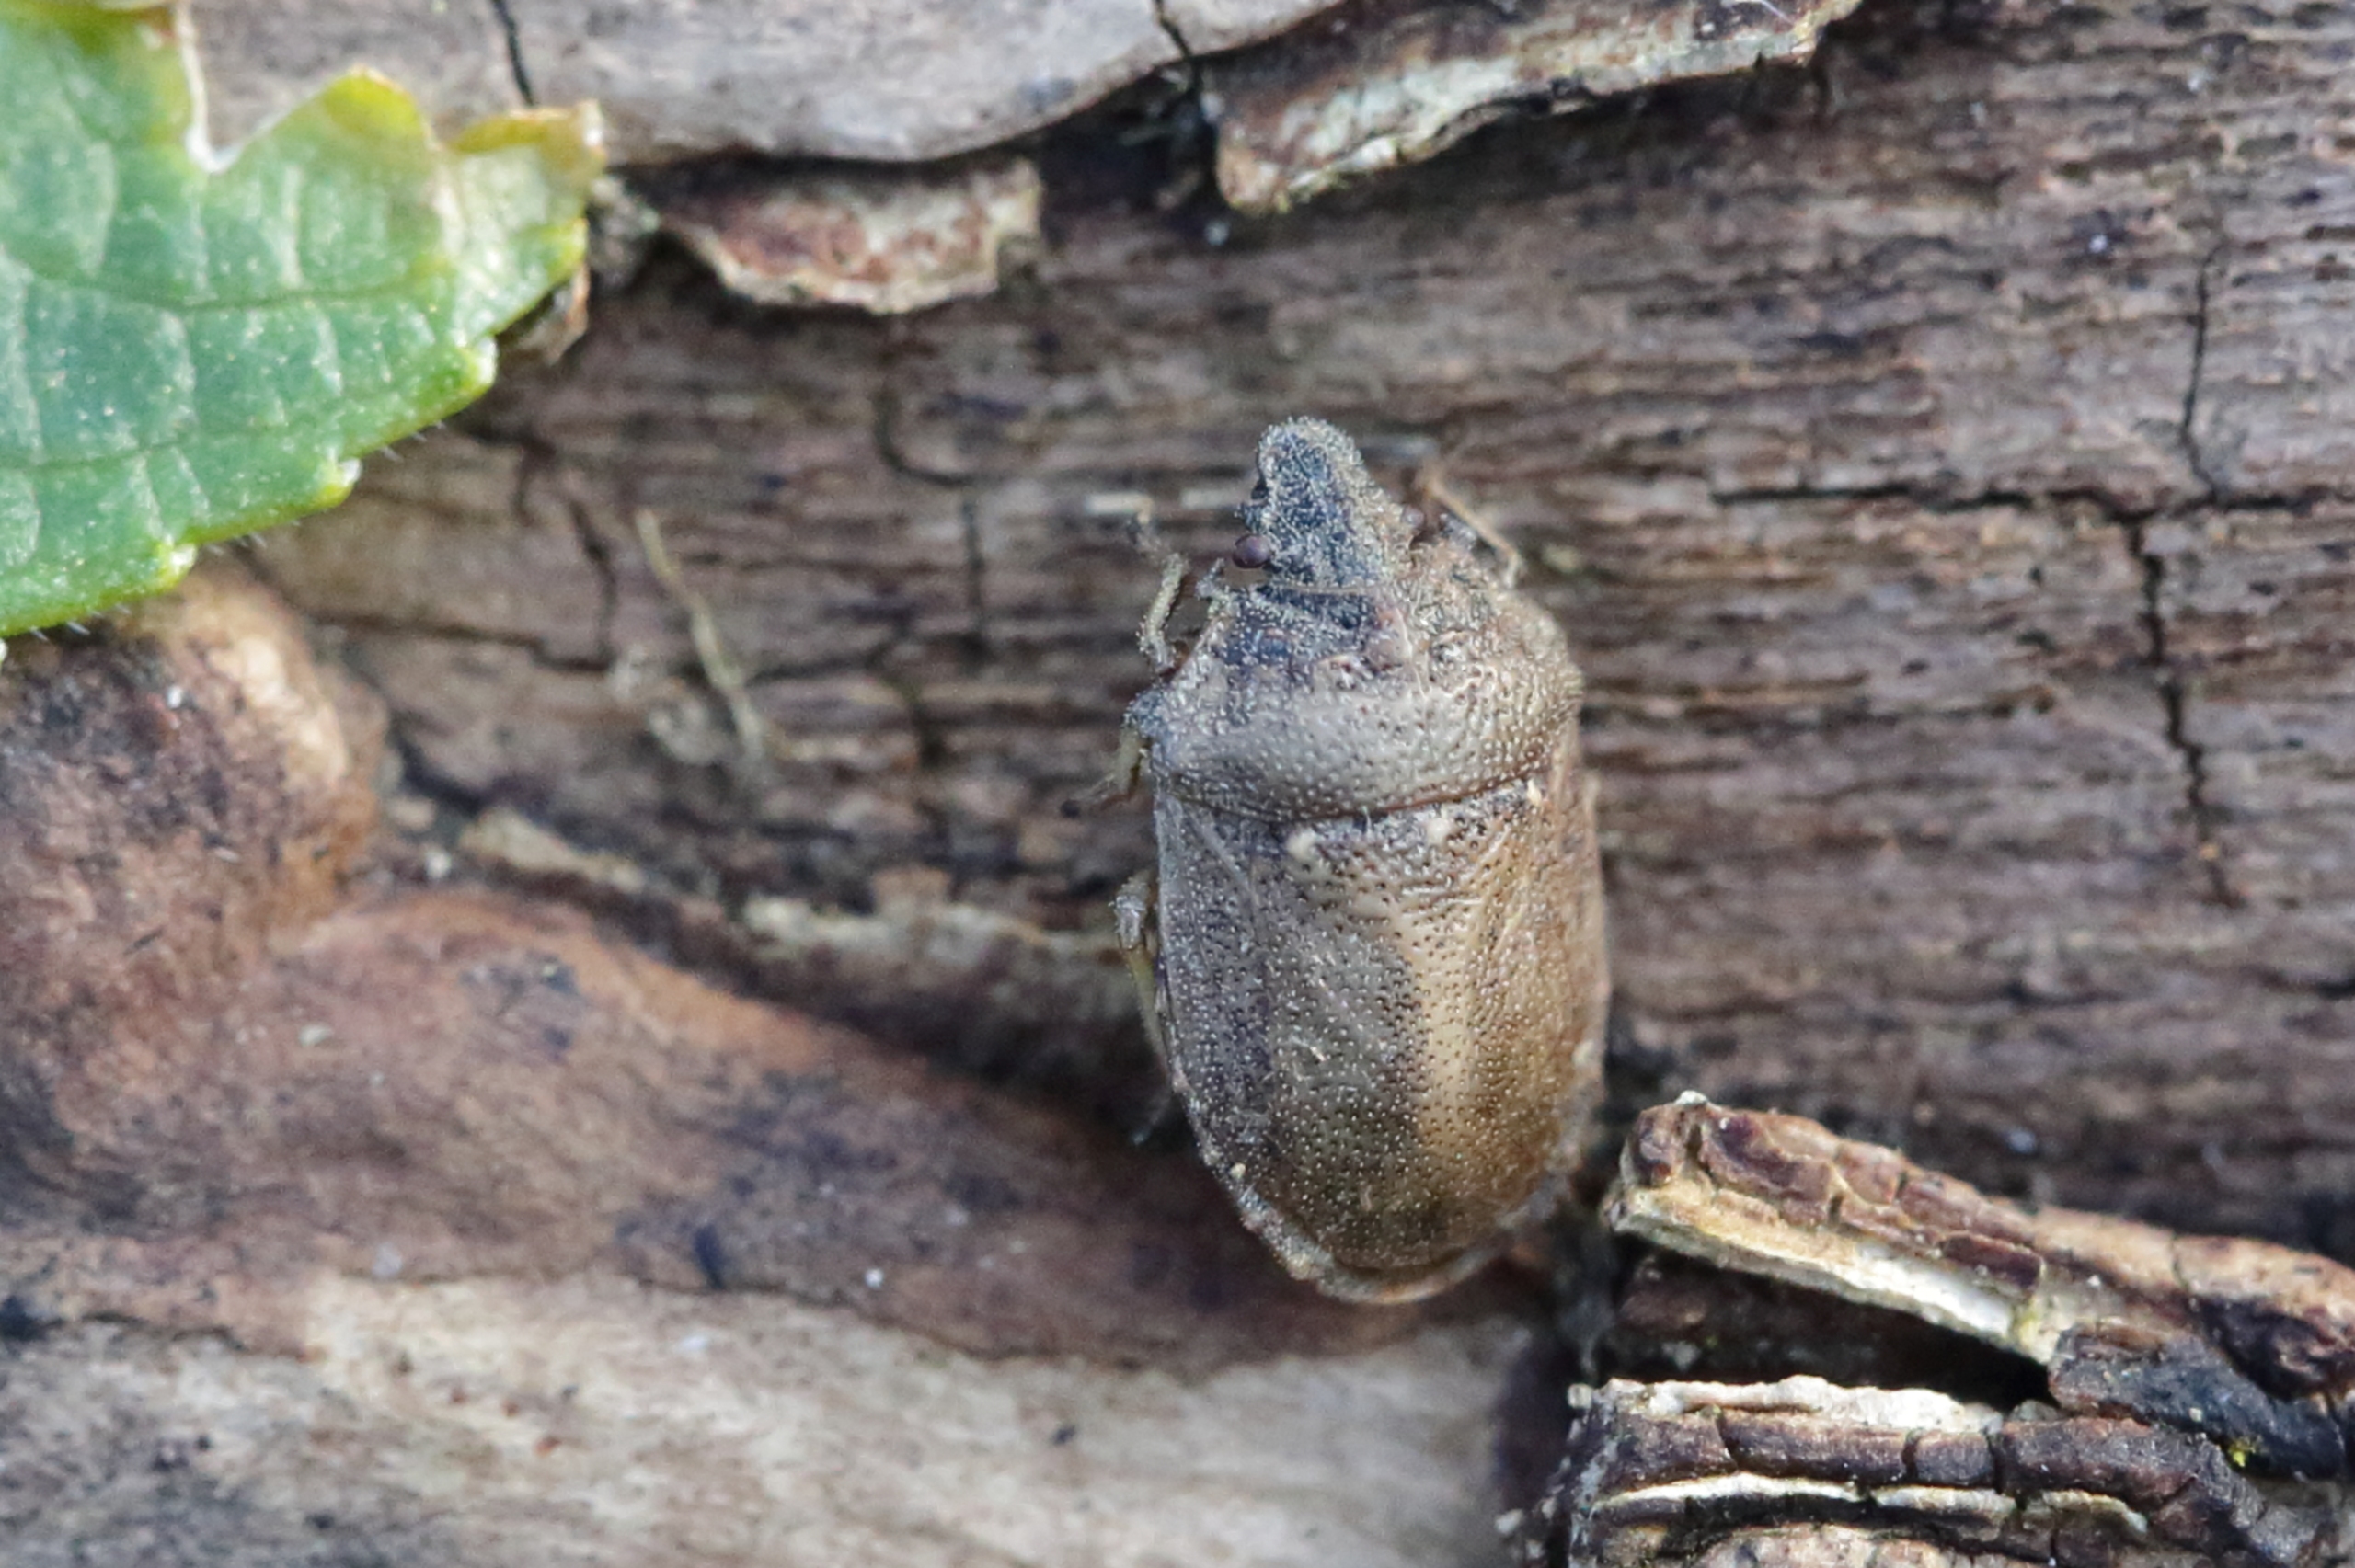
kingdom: Animalia
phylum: Arthropoda
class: Insecta
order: Hemiptera
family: Pentatomidae
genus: Podops
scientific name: Podops inunctus
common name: Krogtæge
